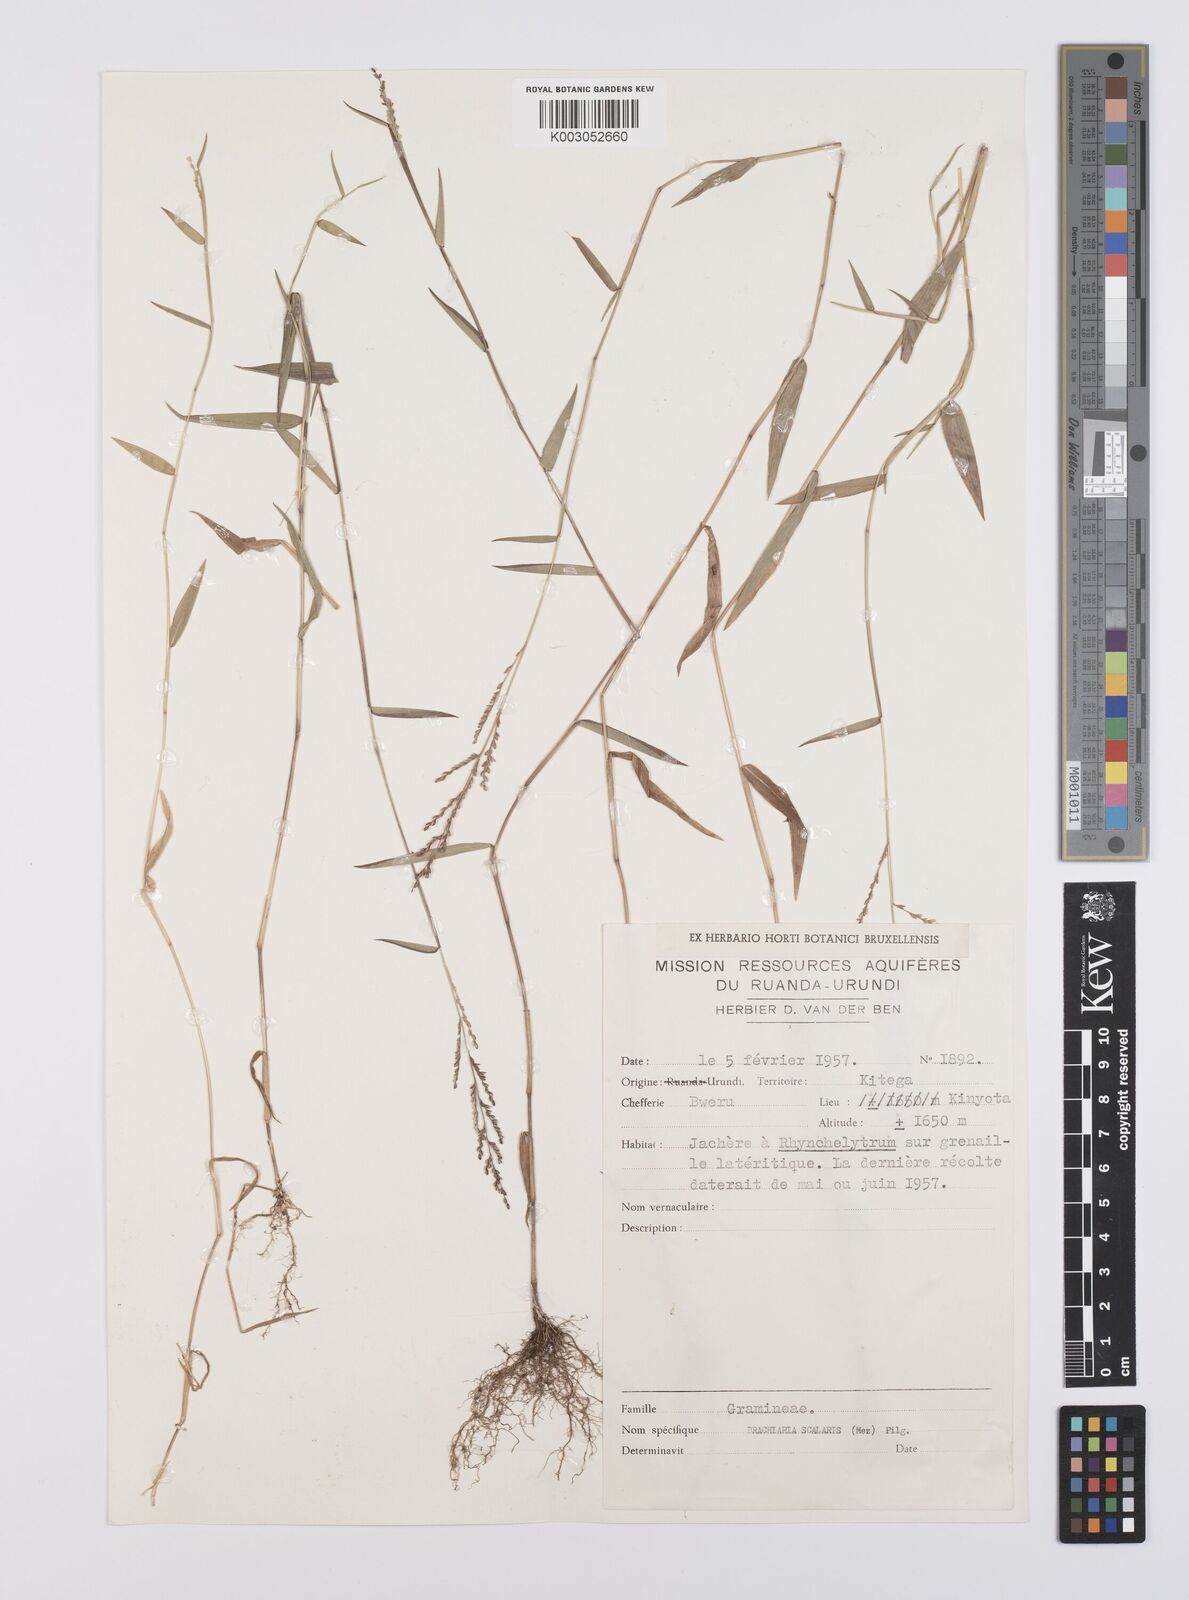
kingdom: Plantae
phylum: Tracheophyta
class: Liliopsida
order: Poales
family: Poaceae
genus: Urochloa
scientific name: Urochloa comata
